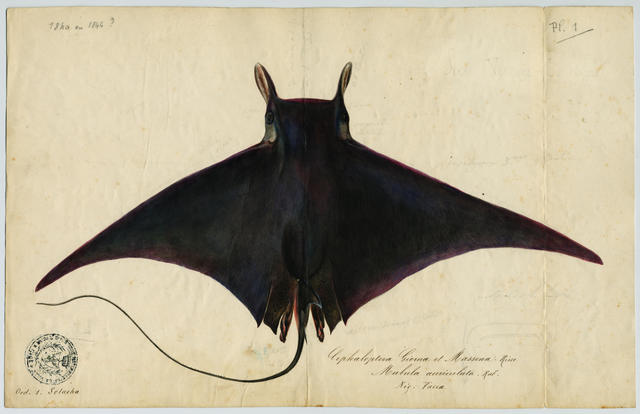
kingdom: Animalia
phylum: Chordata
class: Elasmobranchii
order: Myliobatiformes
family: Myliobatidae
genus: Mobula
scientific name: Mobula mobular
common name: Devil ray
